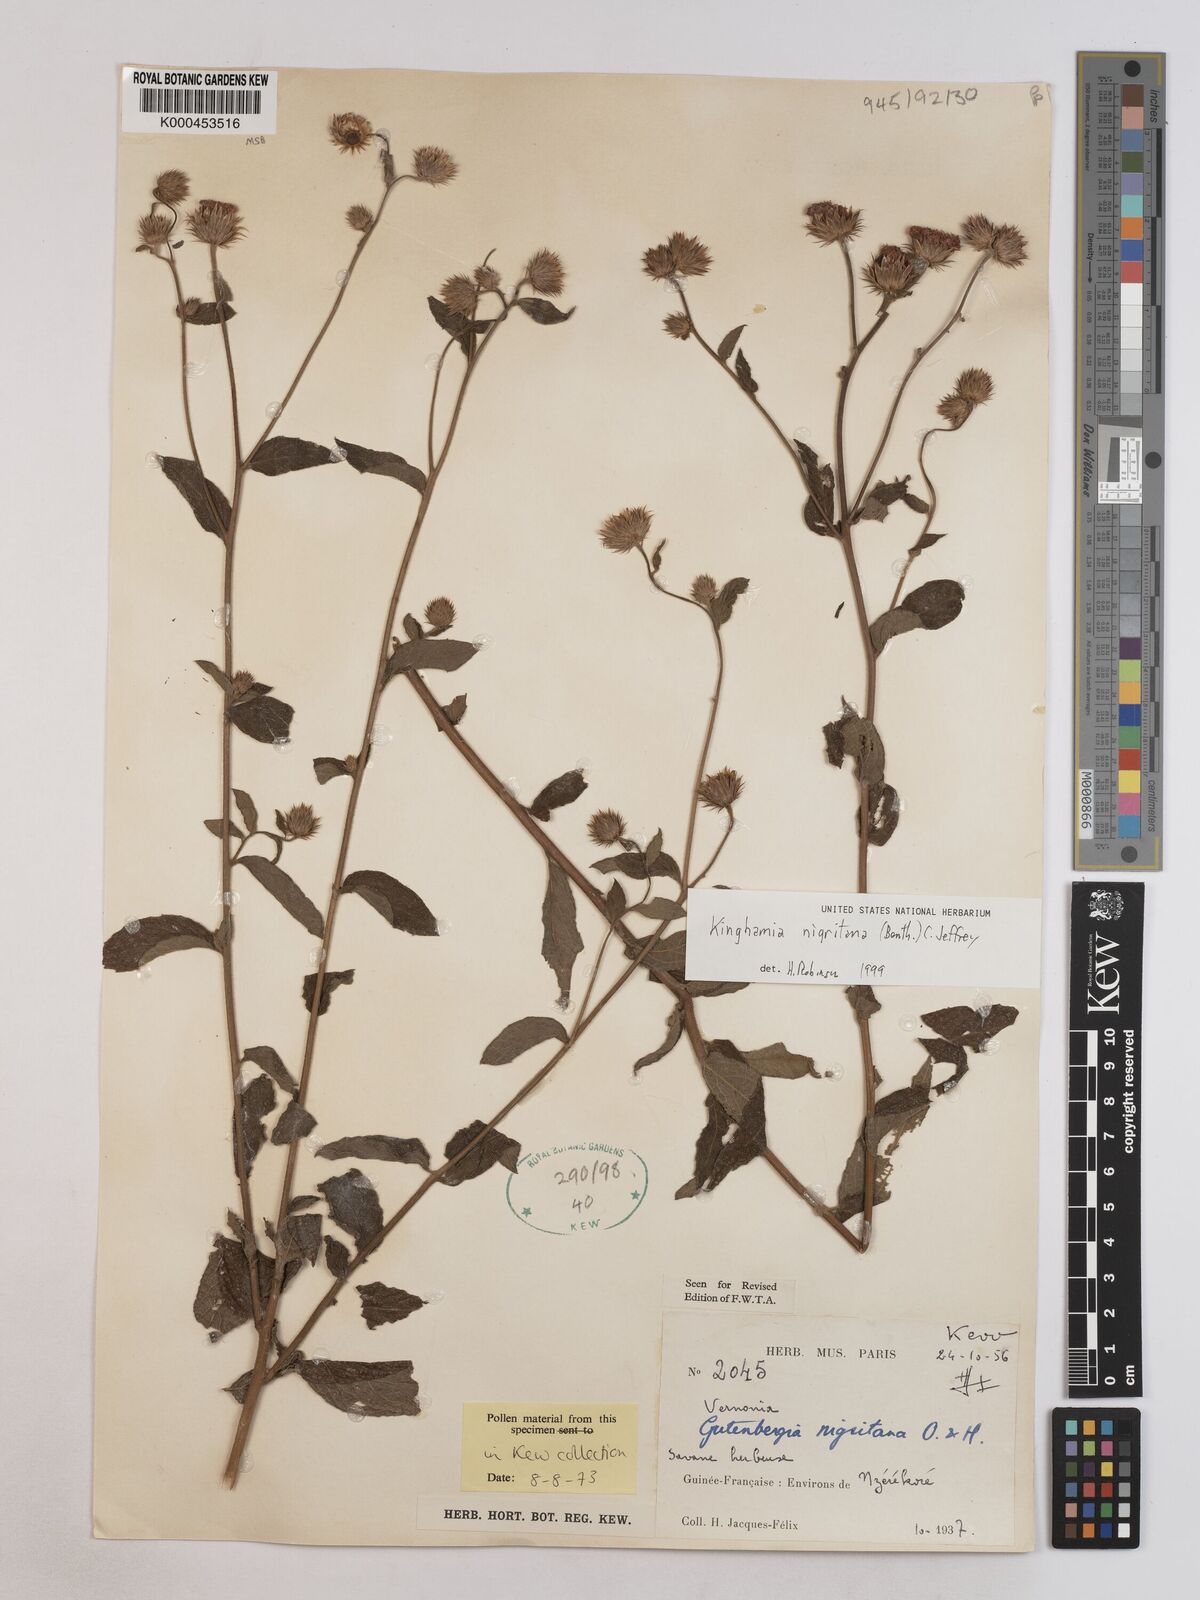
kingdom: Plantae
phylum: Tracheophyta
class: Magnoliopsida
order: Asterales
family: Asteraceae
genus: Kinghamia
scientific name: Kinghamia nigritana
